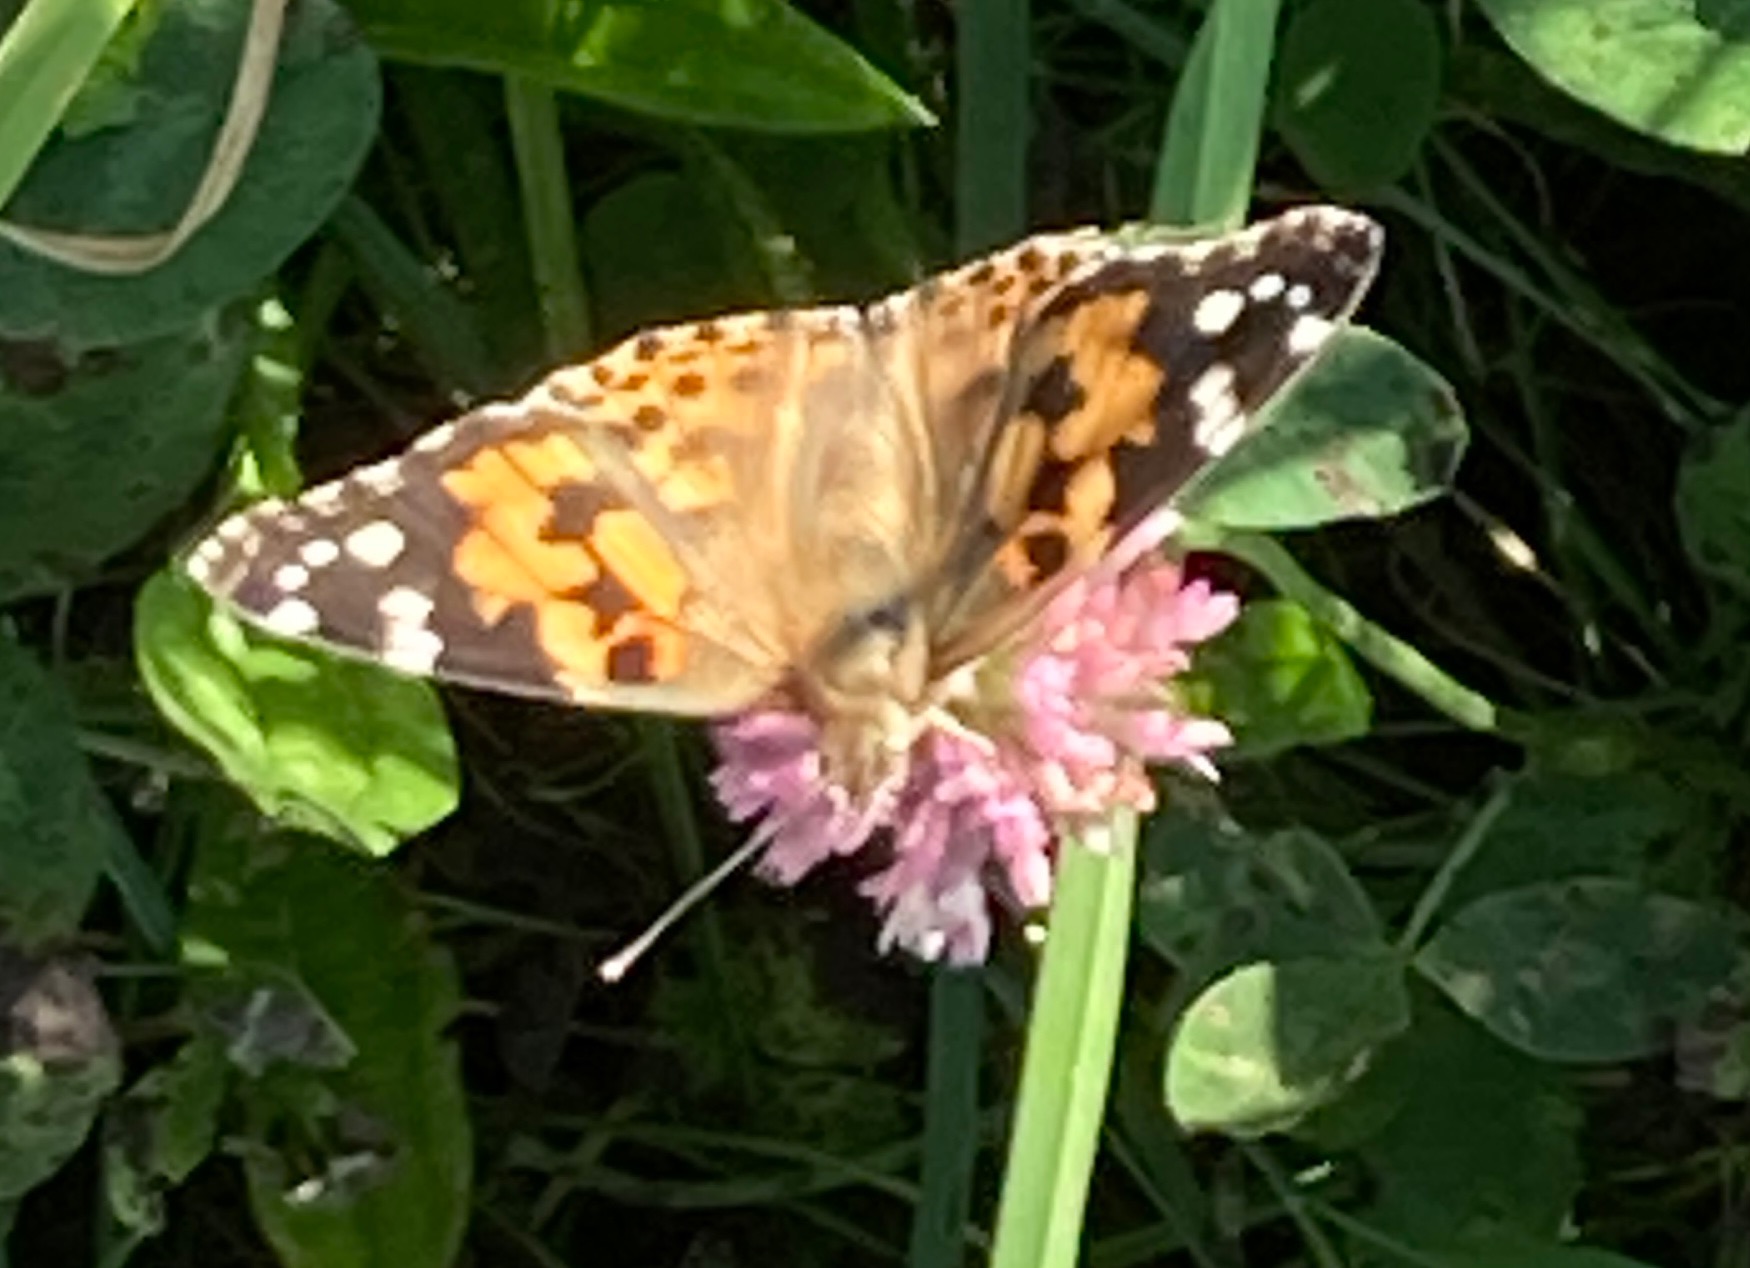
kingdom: Animalia
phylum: Arthropoda
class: Insecta
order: Lepidoptera
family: Nymphalidae
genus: Vanessa
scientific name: Vanessa cardui
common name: Tidselsommerfugl
